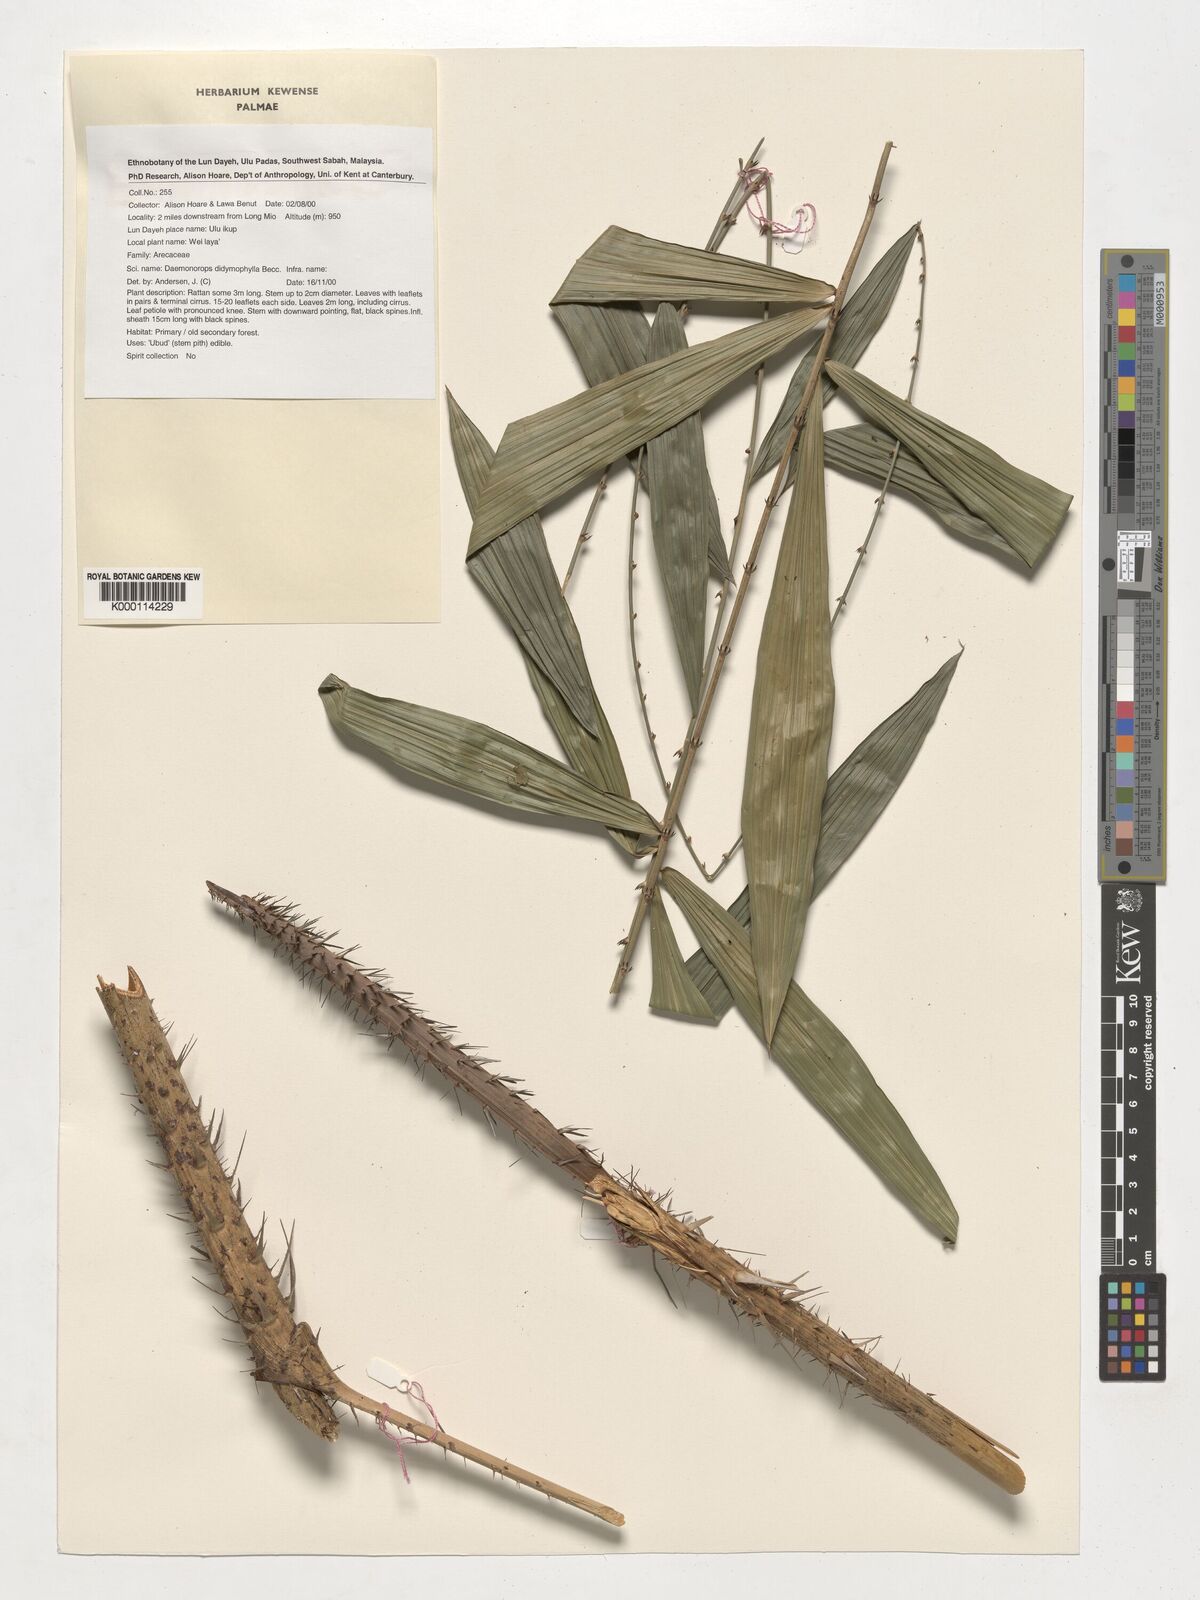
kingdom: Plantae
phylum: Tracheophyta
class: Liliopsida
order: Arecales
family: Arecaceae
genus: Calamus
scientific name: Calamus gracilipes
